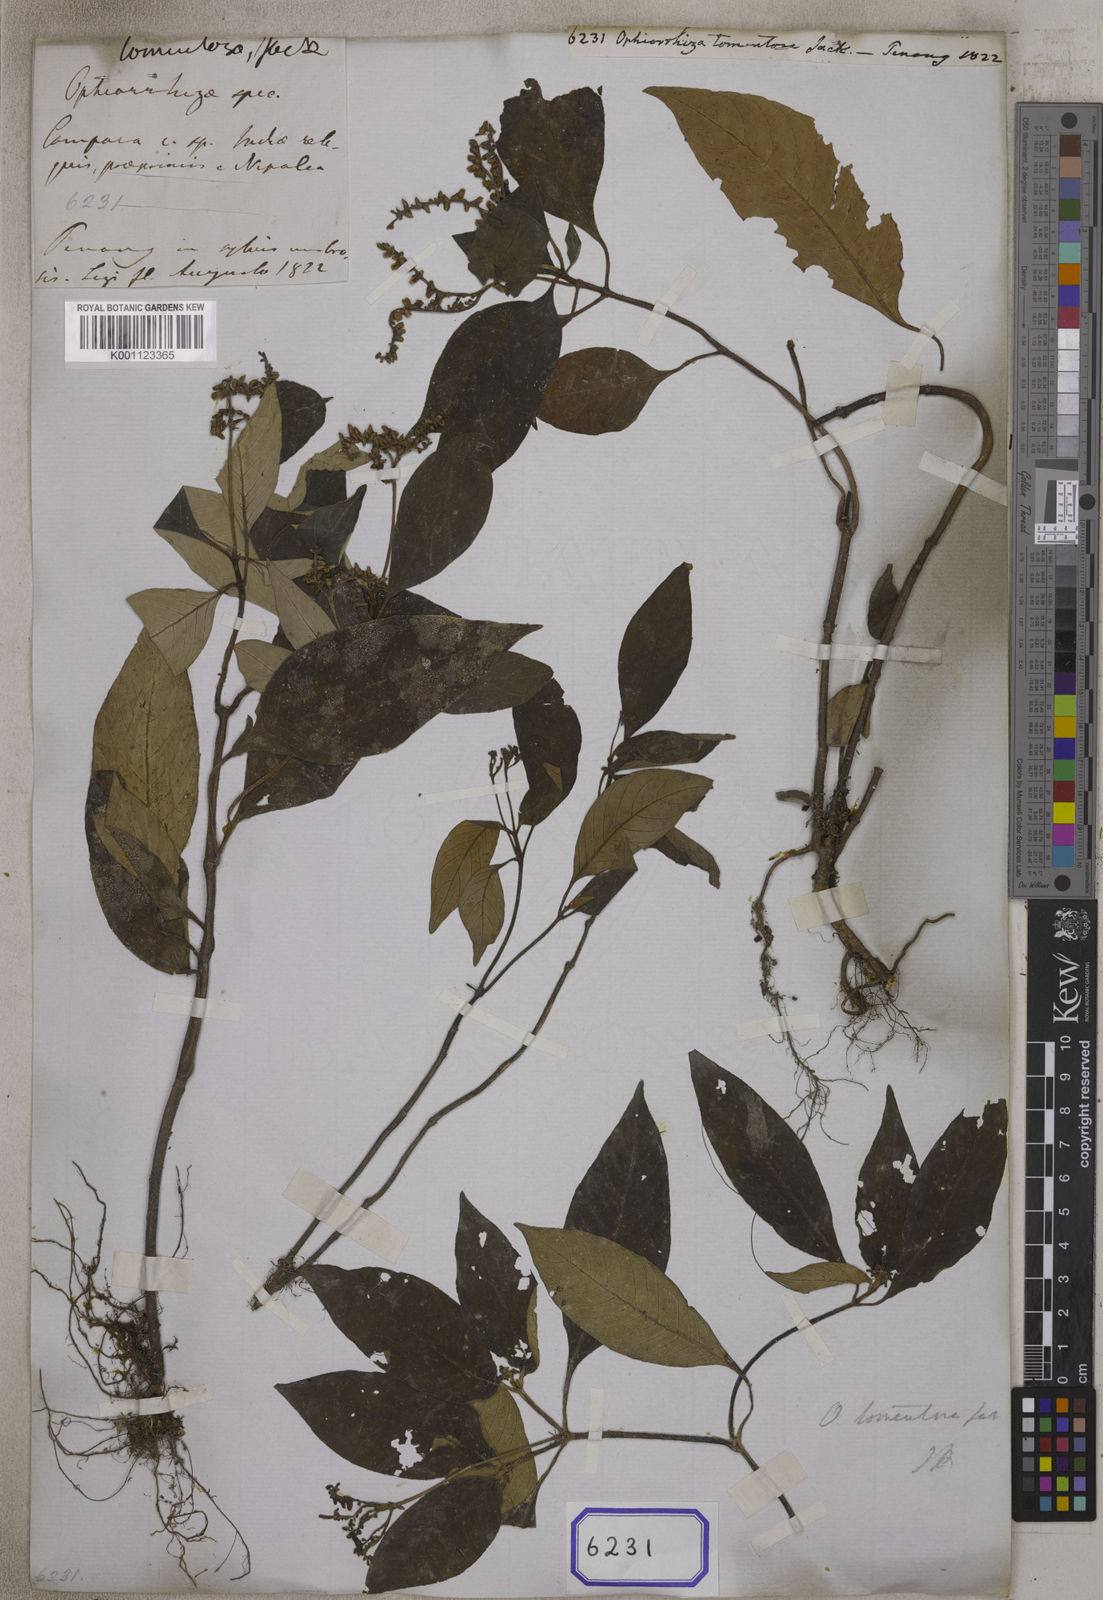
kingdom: Plantae
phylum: Tracheophyta
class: Magnoliopsida
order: Gentianales
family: Rubiaceae
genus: Ophiorrhiza
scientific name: Ophiorrhiza
